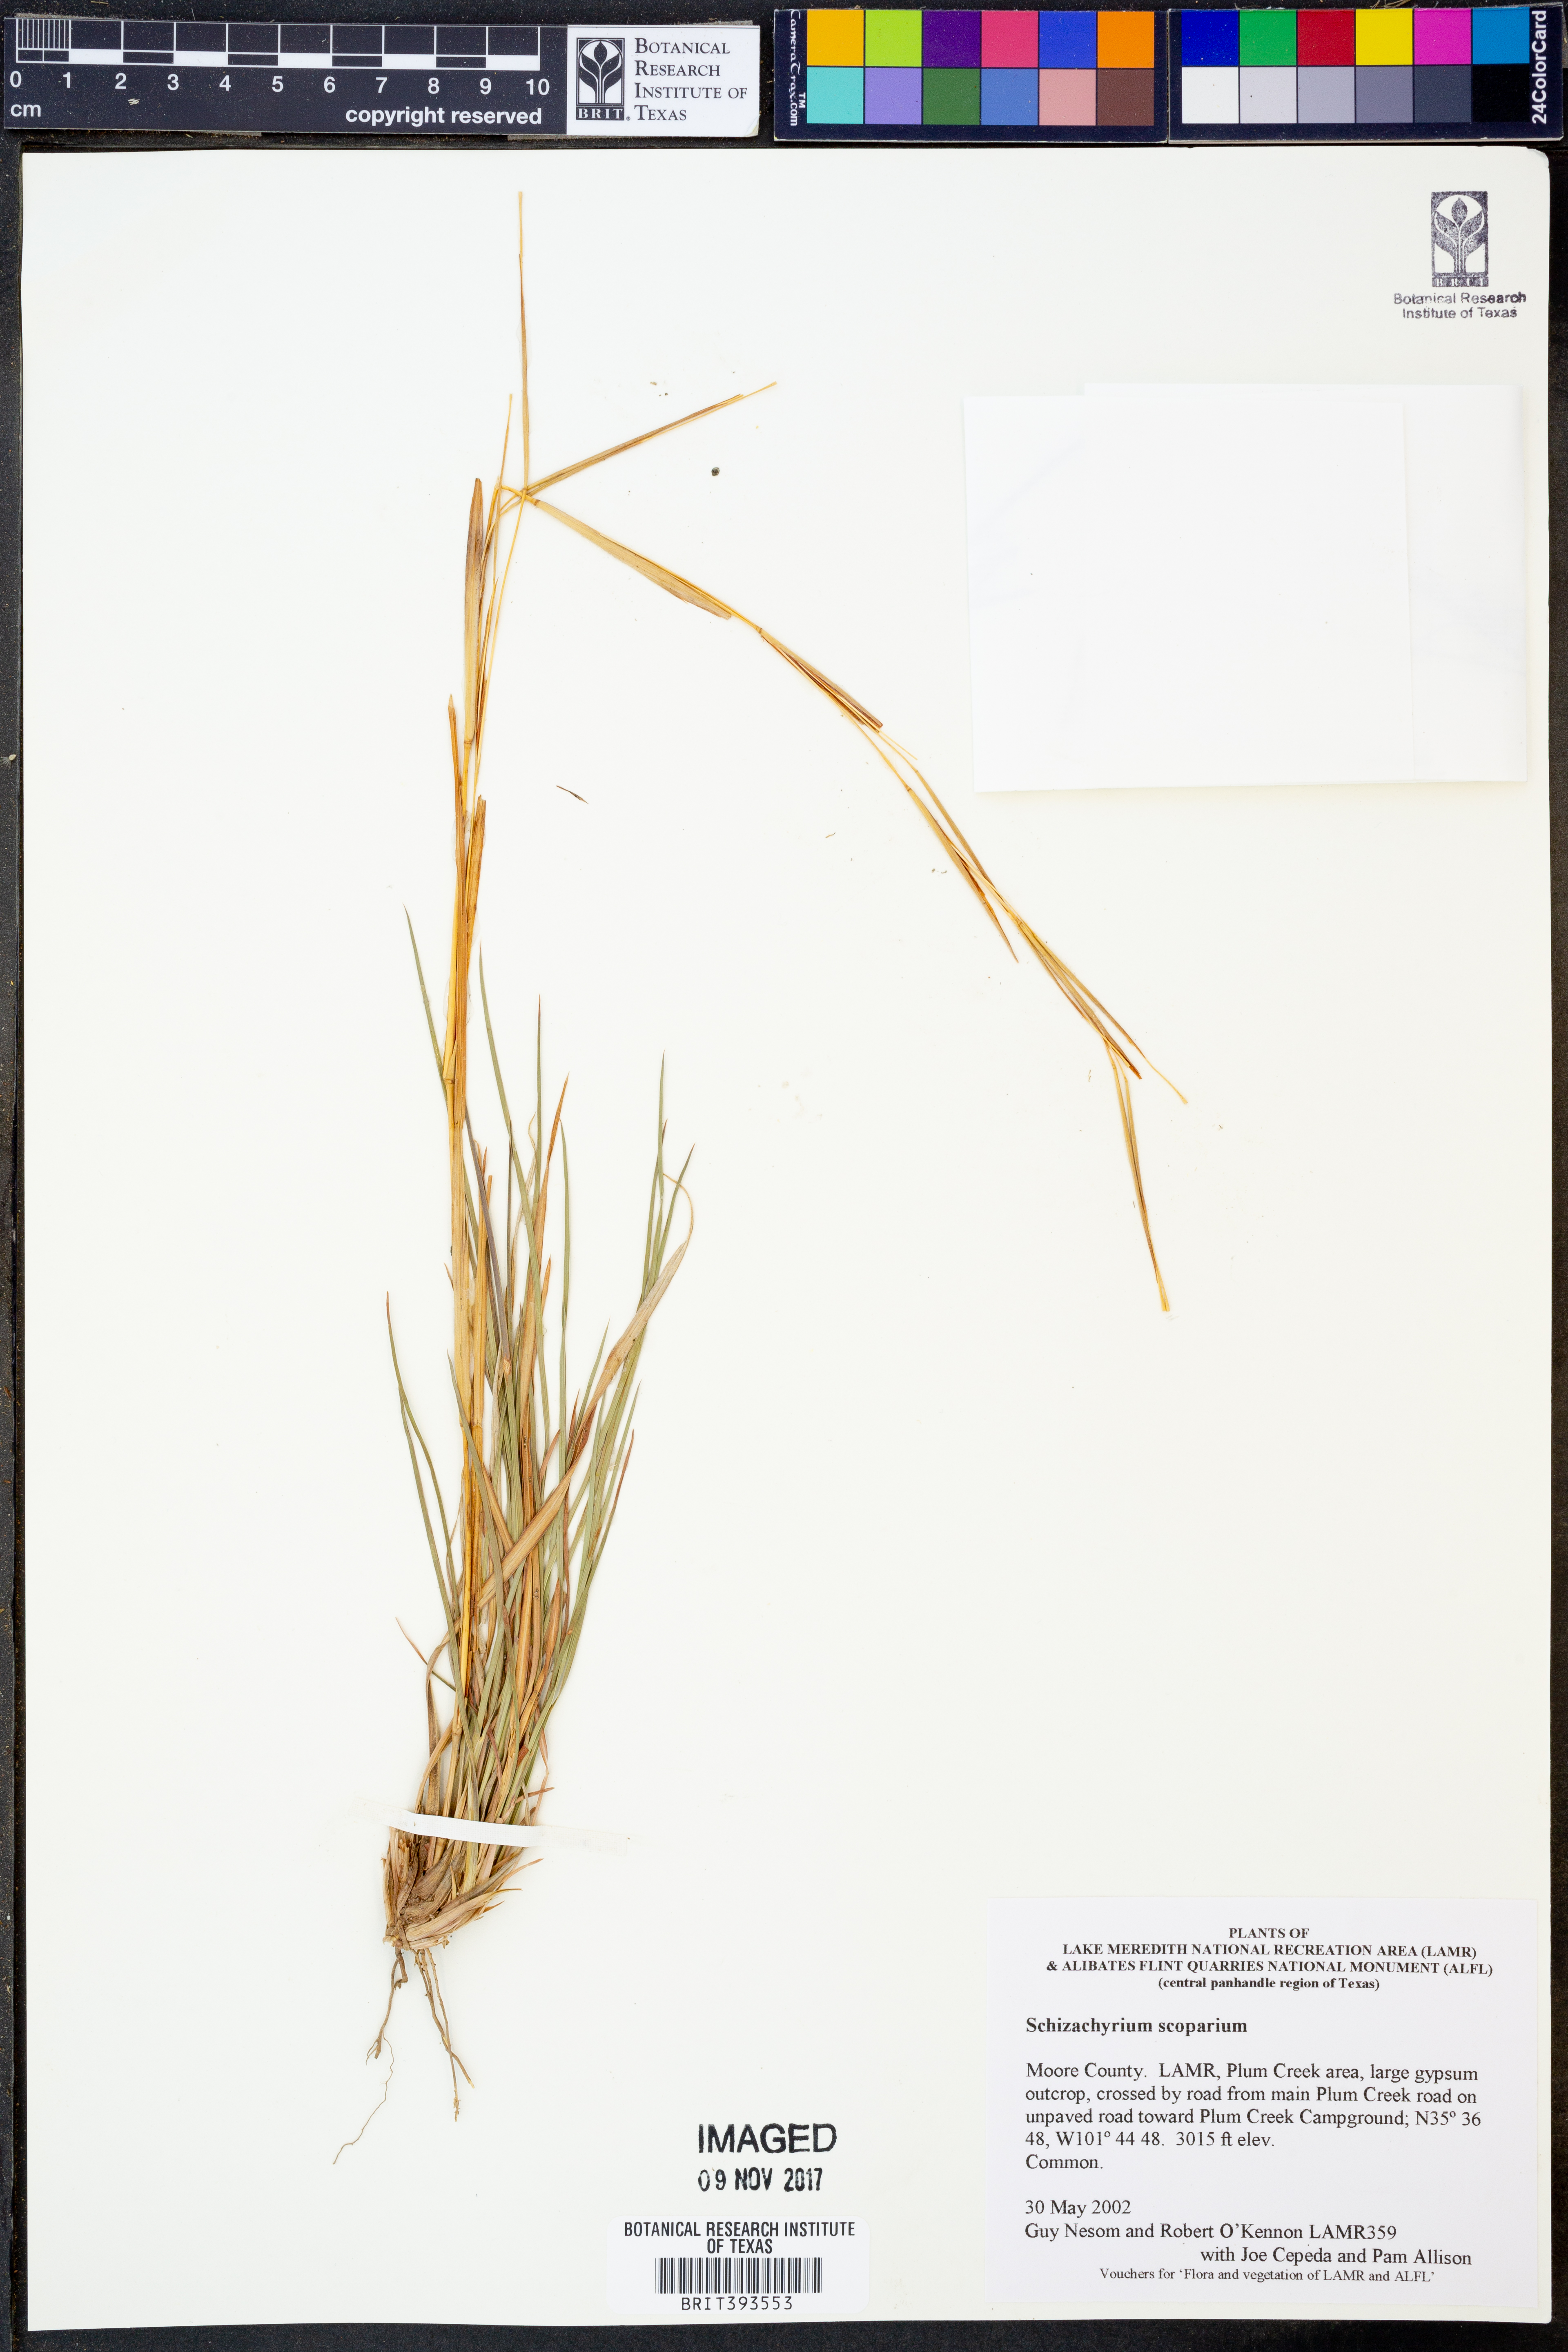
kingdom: Plantae
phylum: Tracheophyta
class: Liliopsida
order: Poales
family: Poaceae
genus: Schizachyrium
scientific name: Schizachyrium scoparium
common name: Little bluestem
